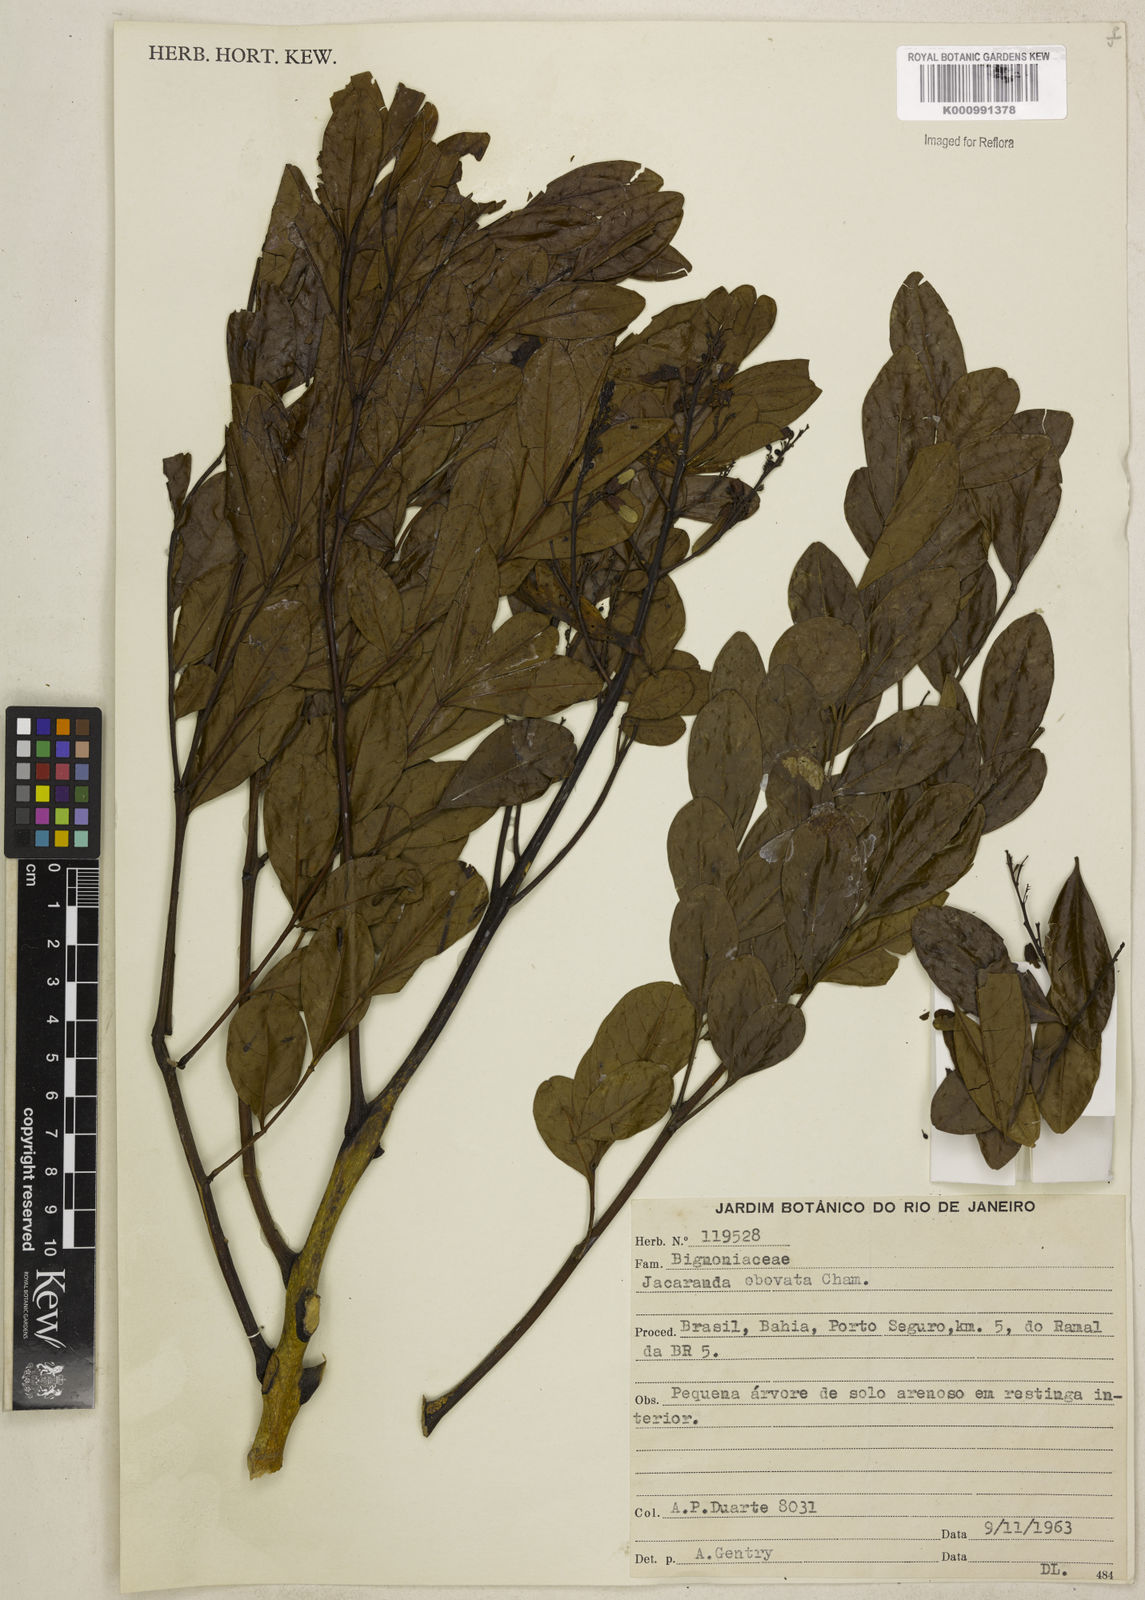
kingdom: Plantae
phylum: Tracheophyta
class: Magnoliopsida
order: Lamiales
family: Bignoniaceae
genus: Jacaranda
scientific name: Jacaranda obovata
